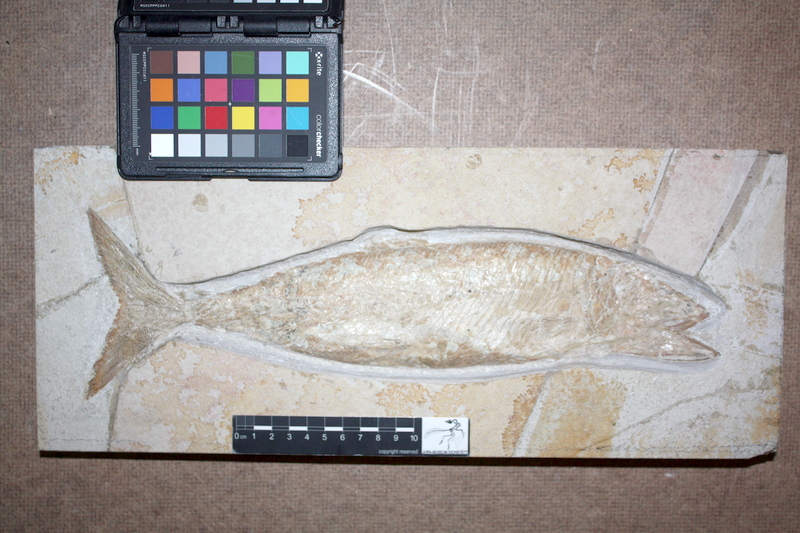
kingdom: Animalia
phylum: Chordata
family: Ankylophoridae
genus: Siemensichthys
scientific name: Siemensichthys macrocephalus
